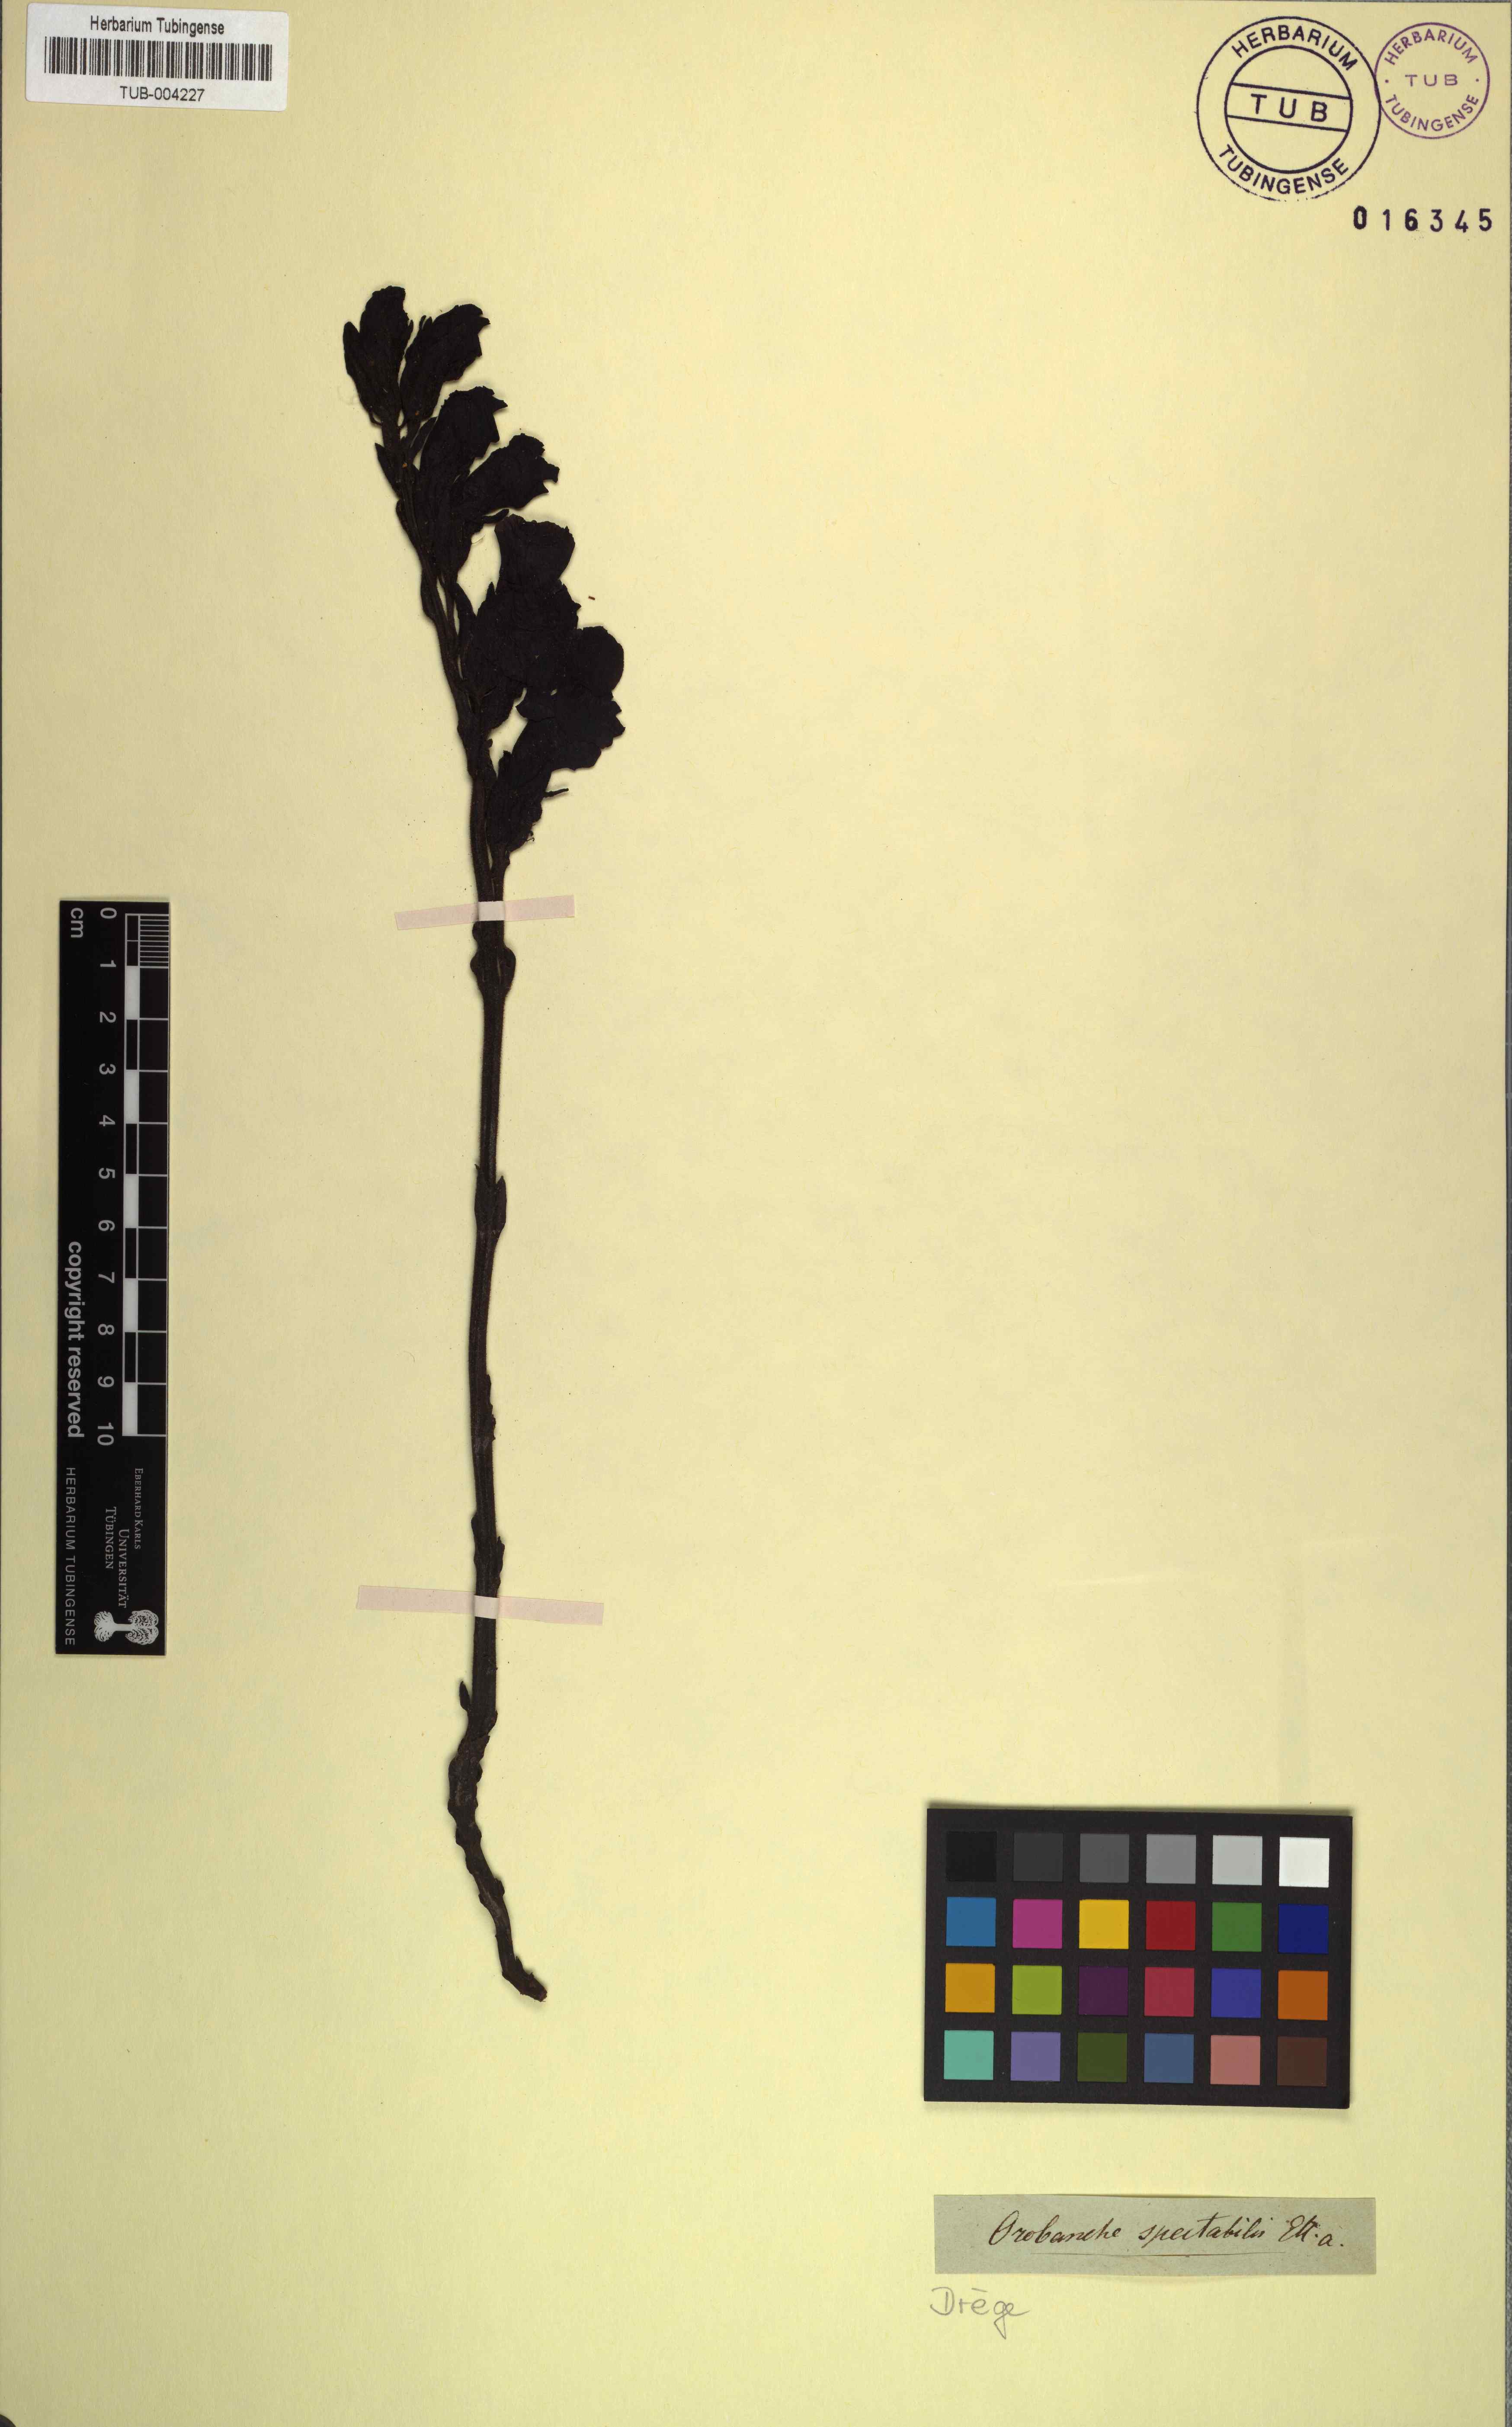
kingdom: Plantae
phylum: Tracheophyta
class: Magnoliopsida
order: Lamiales
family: Orobanchaceae
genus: Harveya
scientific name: Harveya capensis
